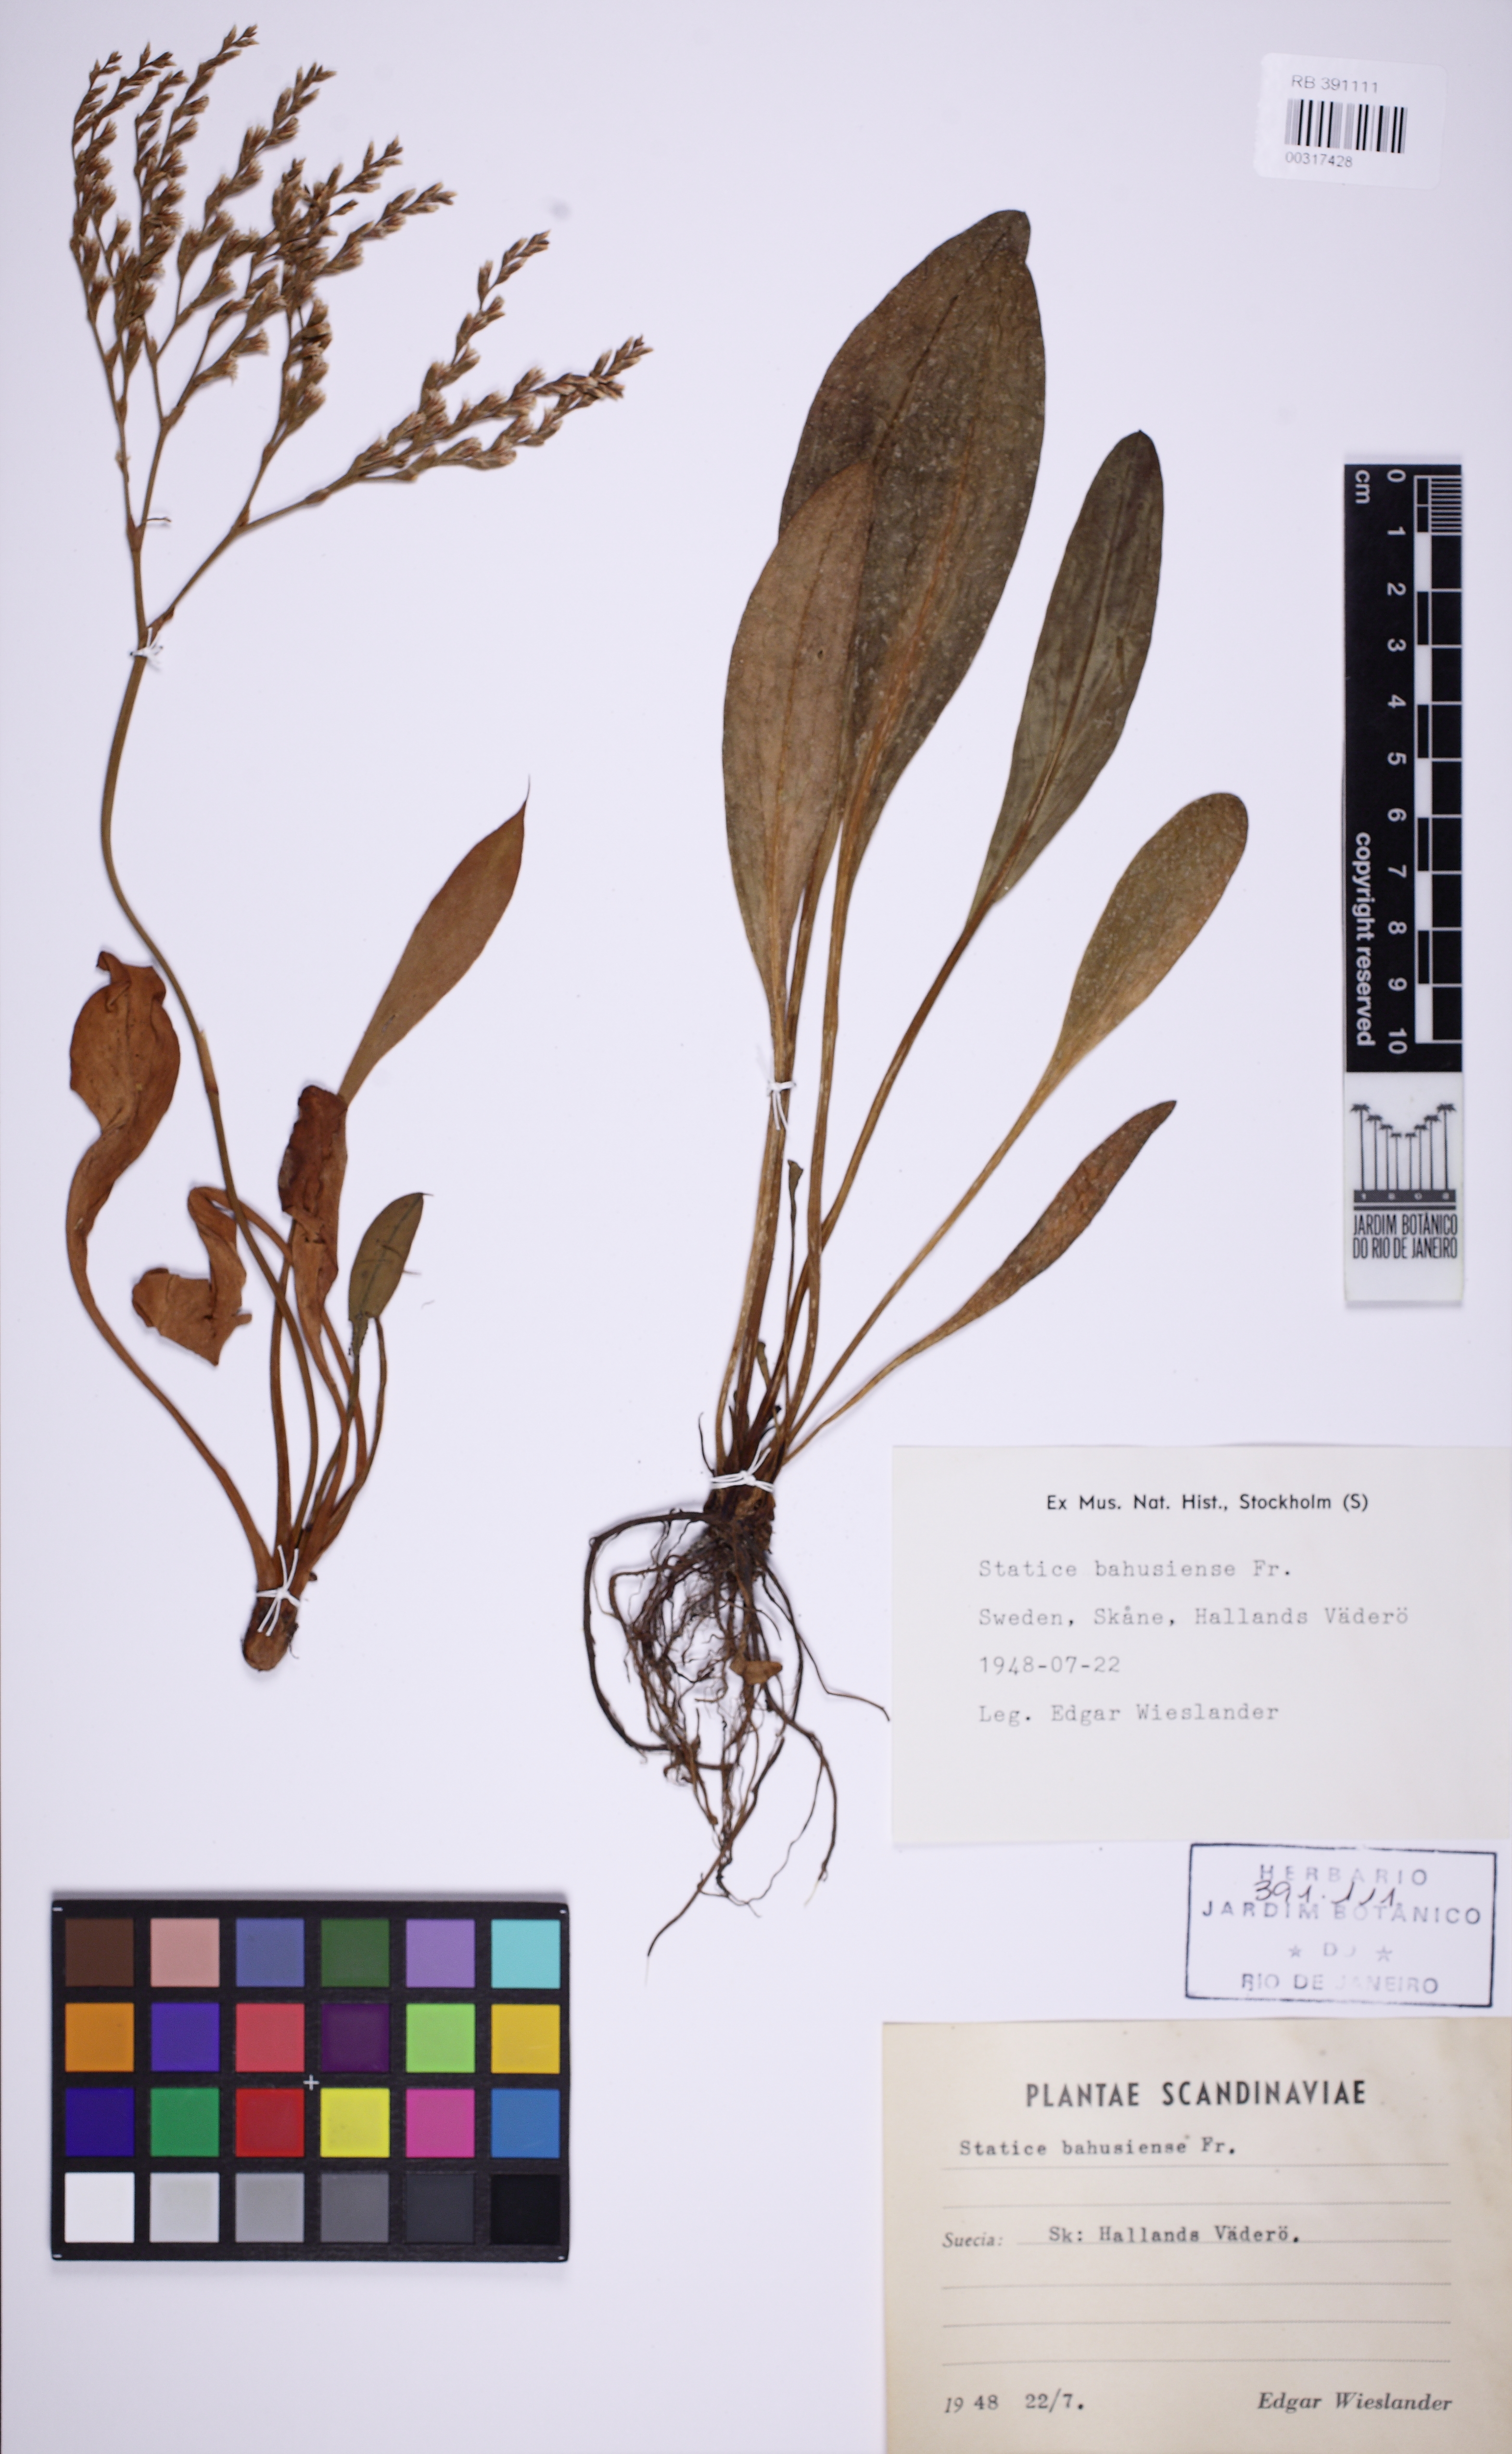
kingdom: Plantae
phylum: Tracheophyta
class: Magnoliopsida
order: Caryophyllales
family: Plumbaginaceae
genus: Limonium
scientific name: Limonium humile
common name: Lax-flowered sea-lavender
